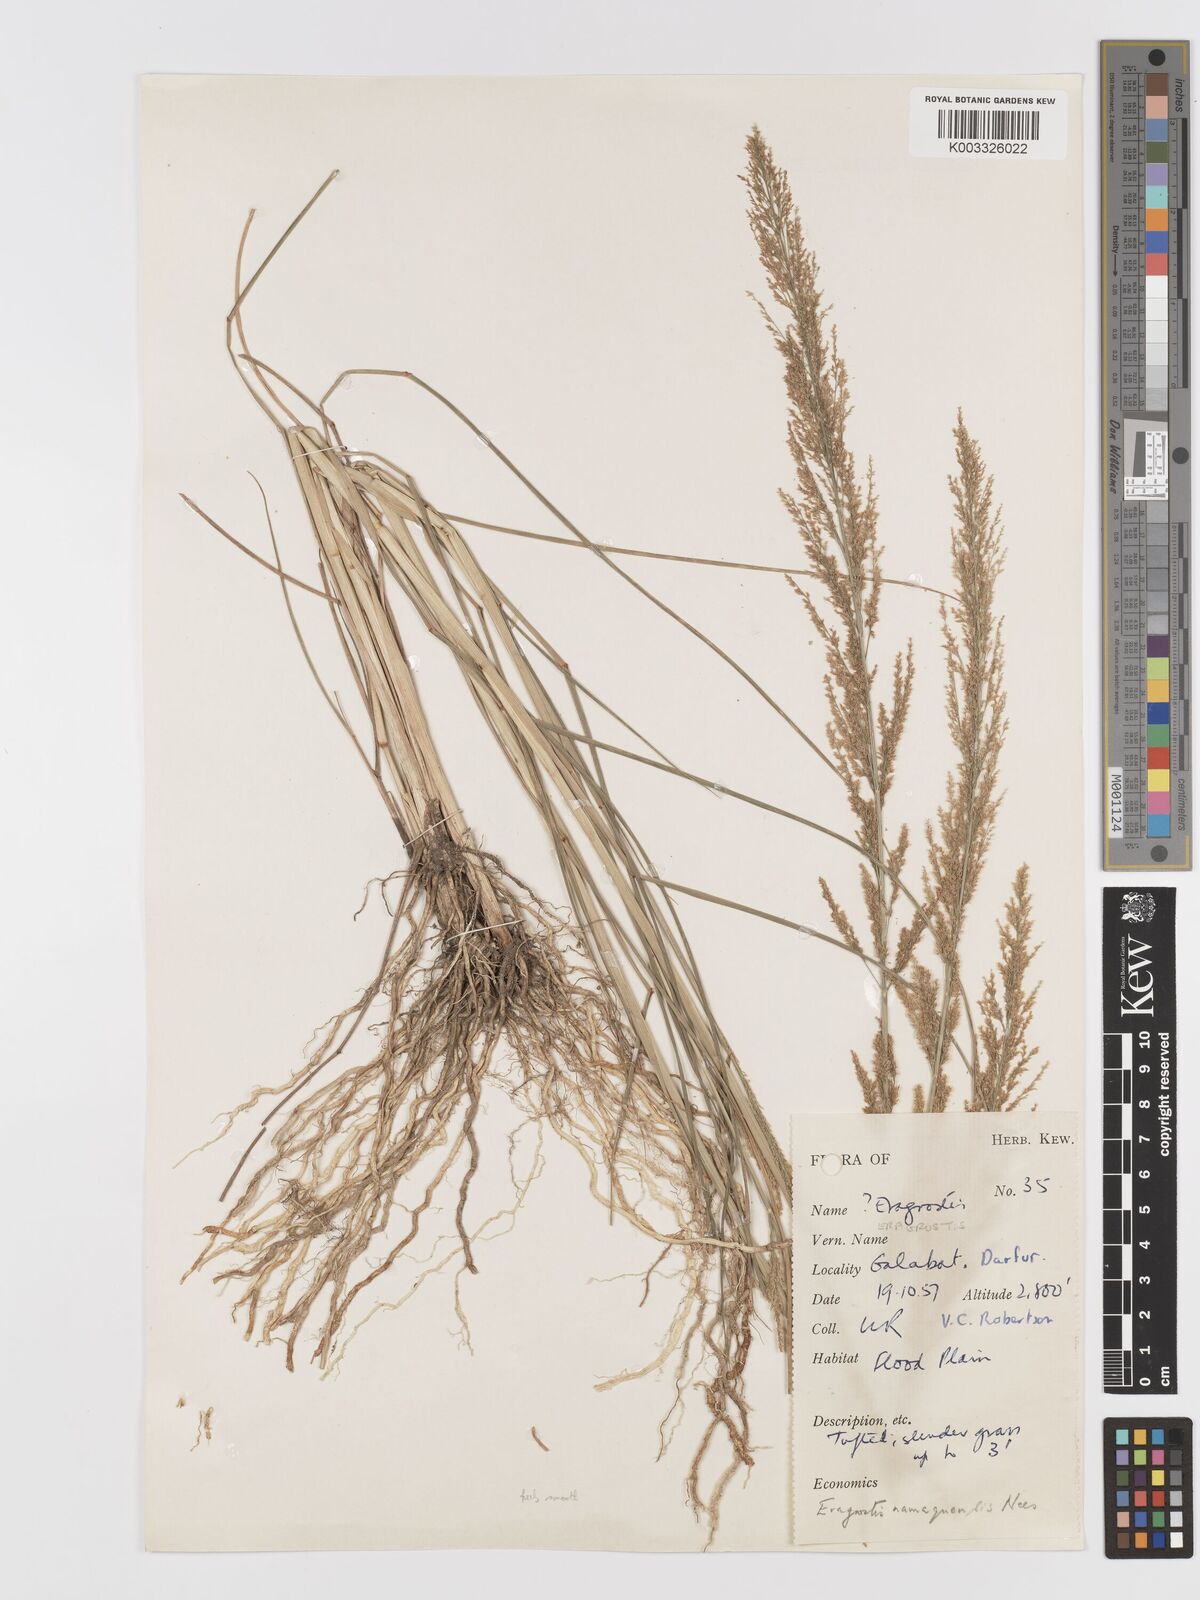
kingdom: Plantae
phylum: Tracheophyta
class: Liliopsida
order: Poales
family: Poaceae
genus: Eragrostis
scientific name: Eragrostis japonica
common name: Pond lovegrass
